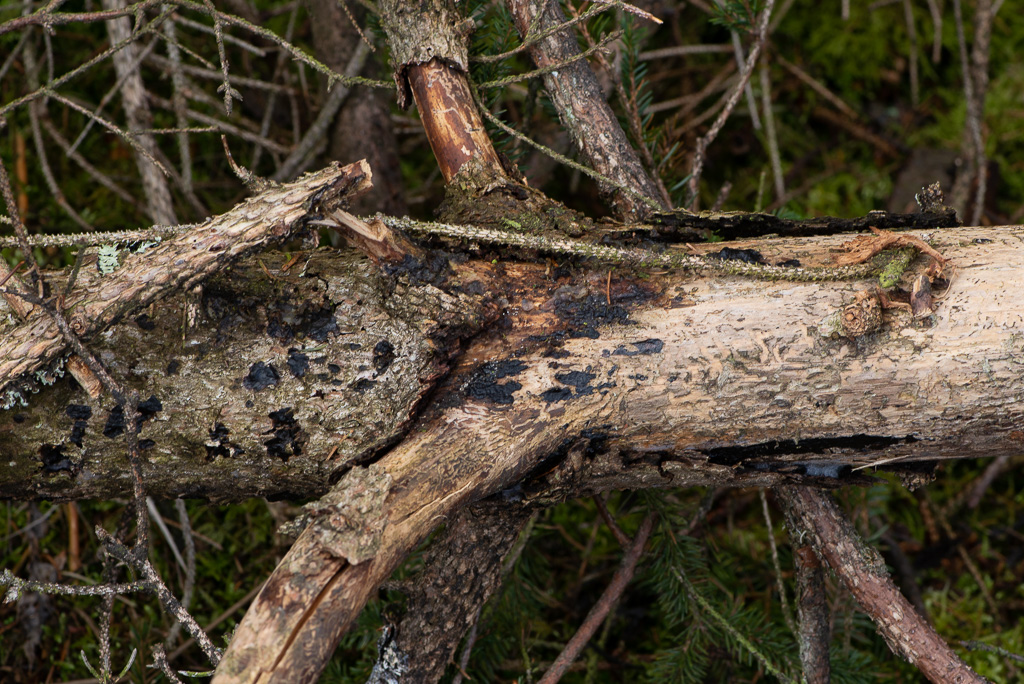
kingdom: Fungi
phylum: Basidiomycota
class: Agaricomycetes
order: Auriculariales
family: Auriculariaceae
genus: Exidia
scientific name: Exidia pithya
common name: gran-bævretop
